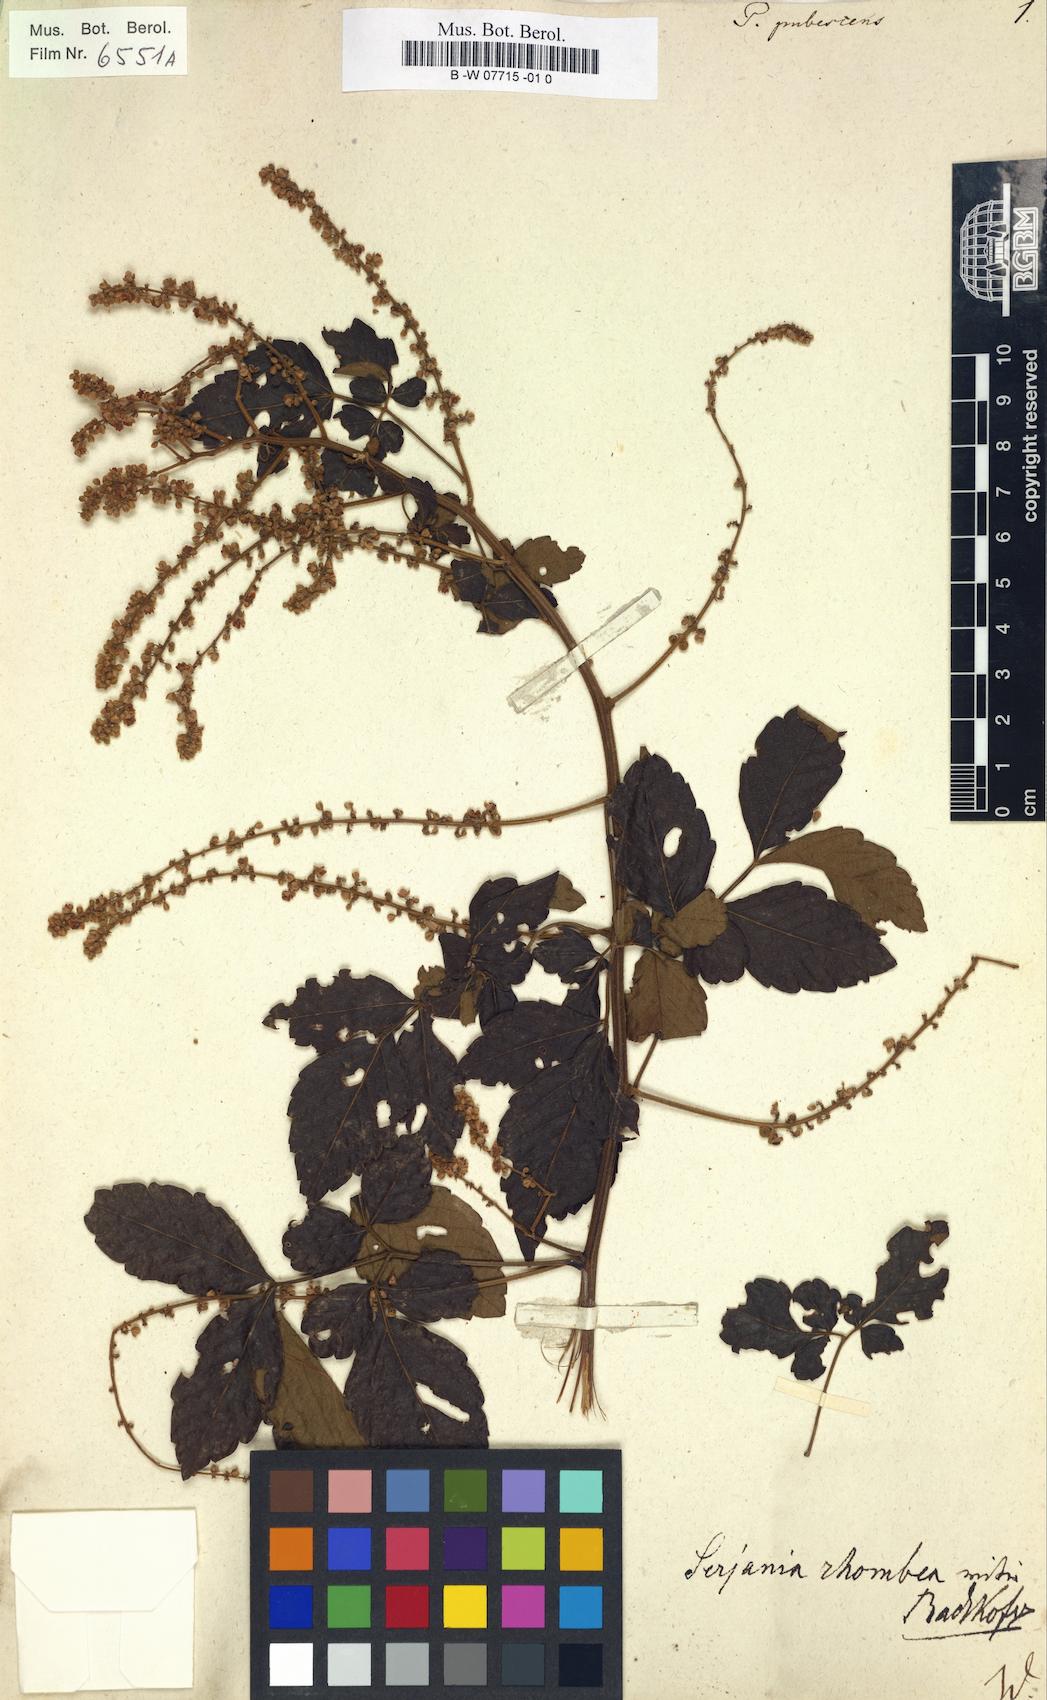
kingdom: Plantae
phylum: Tracheophyta
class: Magnoliopsida
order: Sapindales
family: Sapindaceae
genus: Paullinia
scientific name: Paullinia fuscescens
